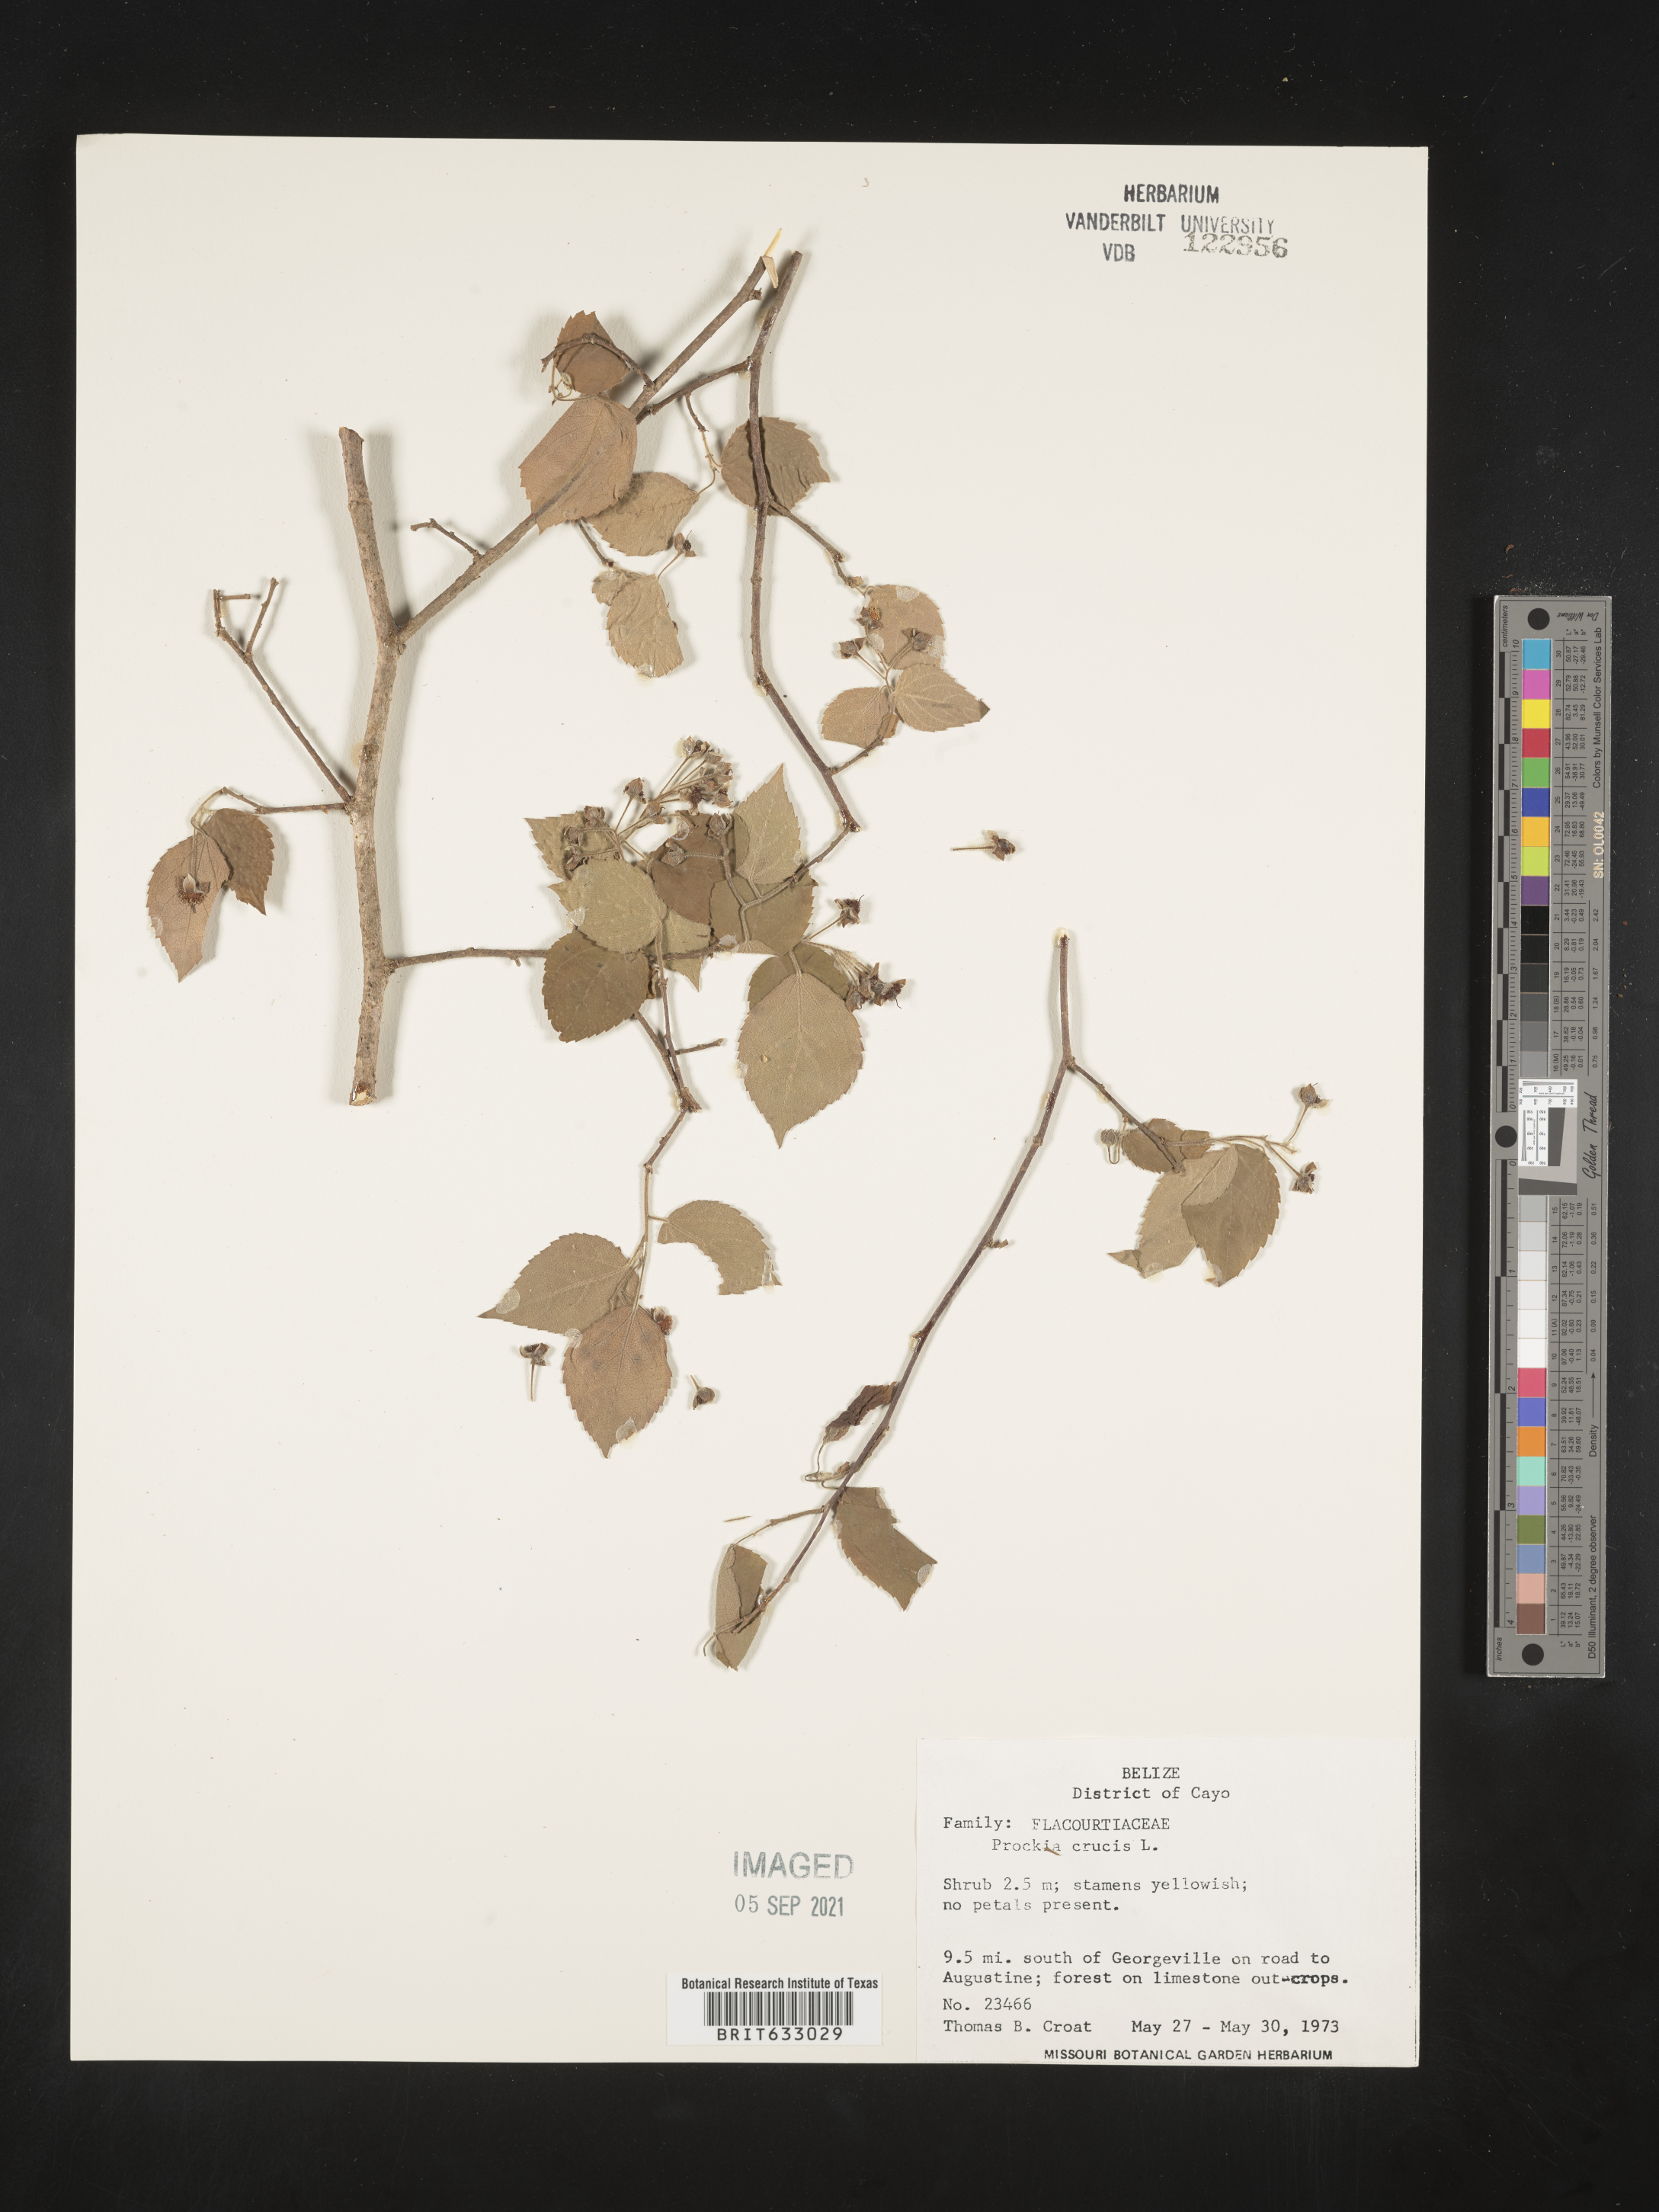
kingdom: Plantae
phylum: Tracheophyta
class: Magnoliopsida
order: Malpighiales
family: Salicaceae
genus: Prockia
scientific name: Prockia
